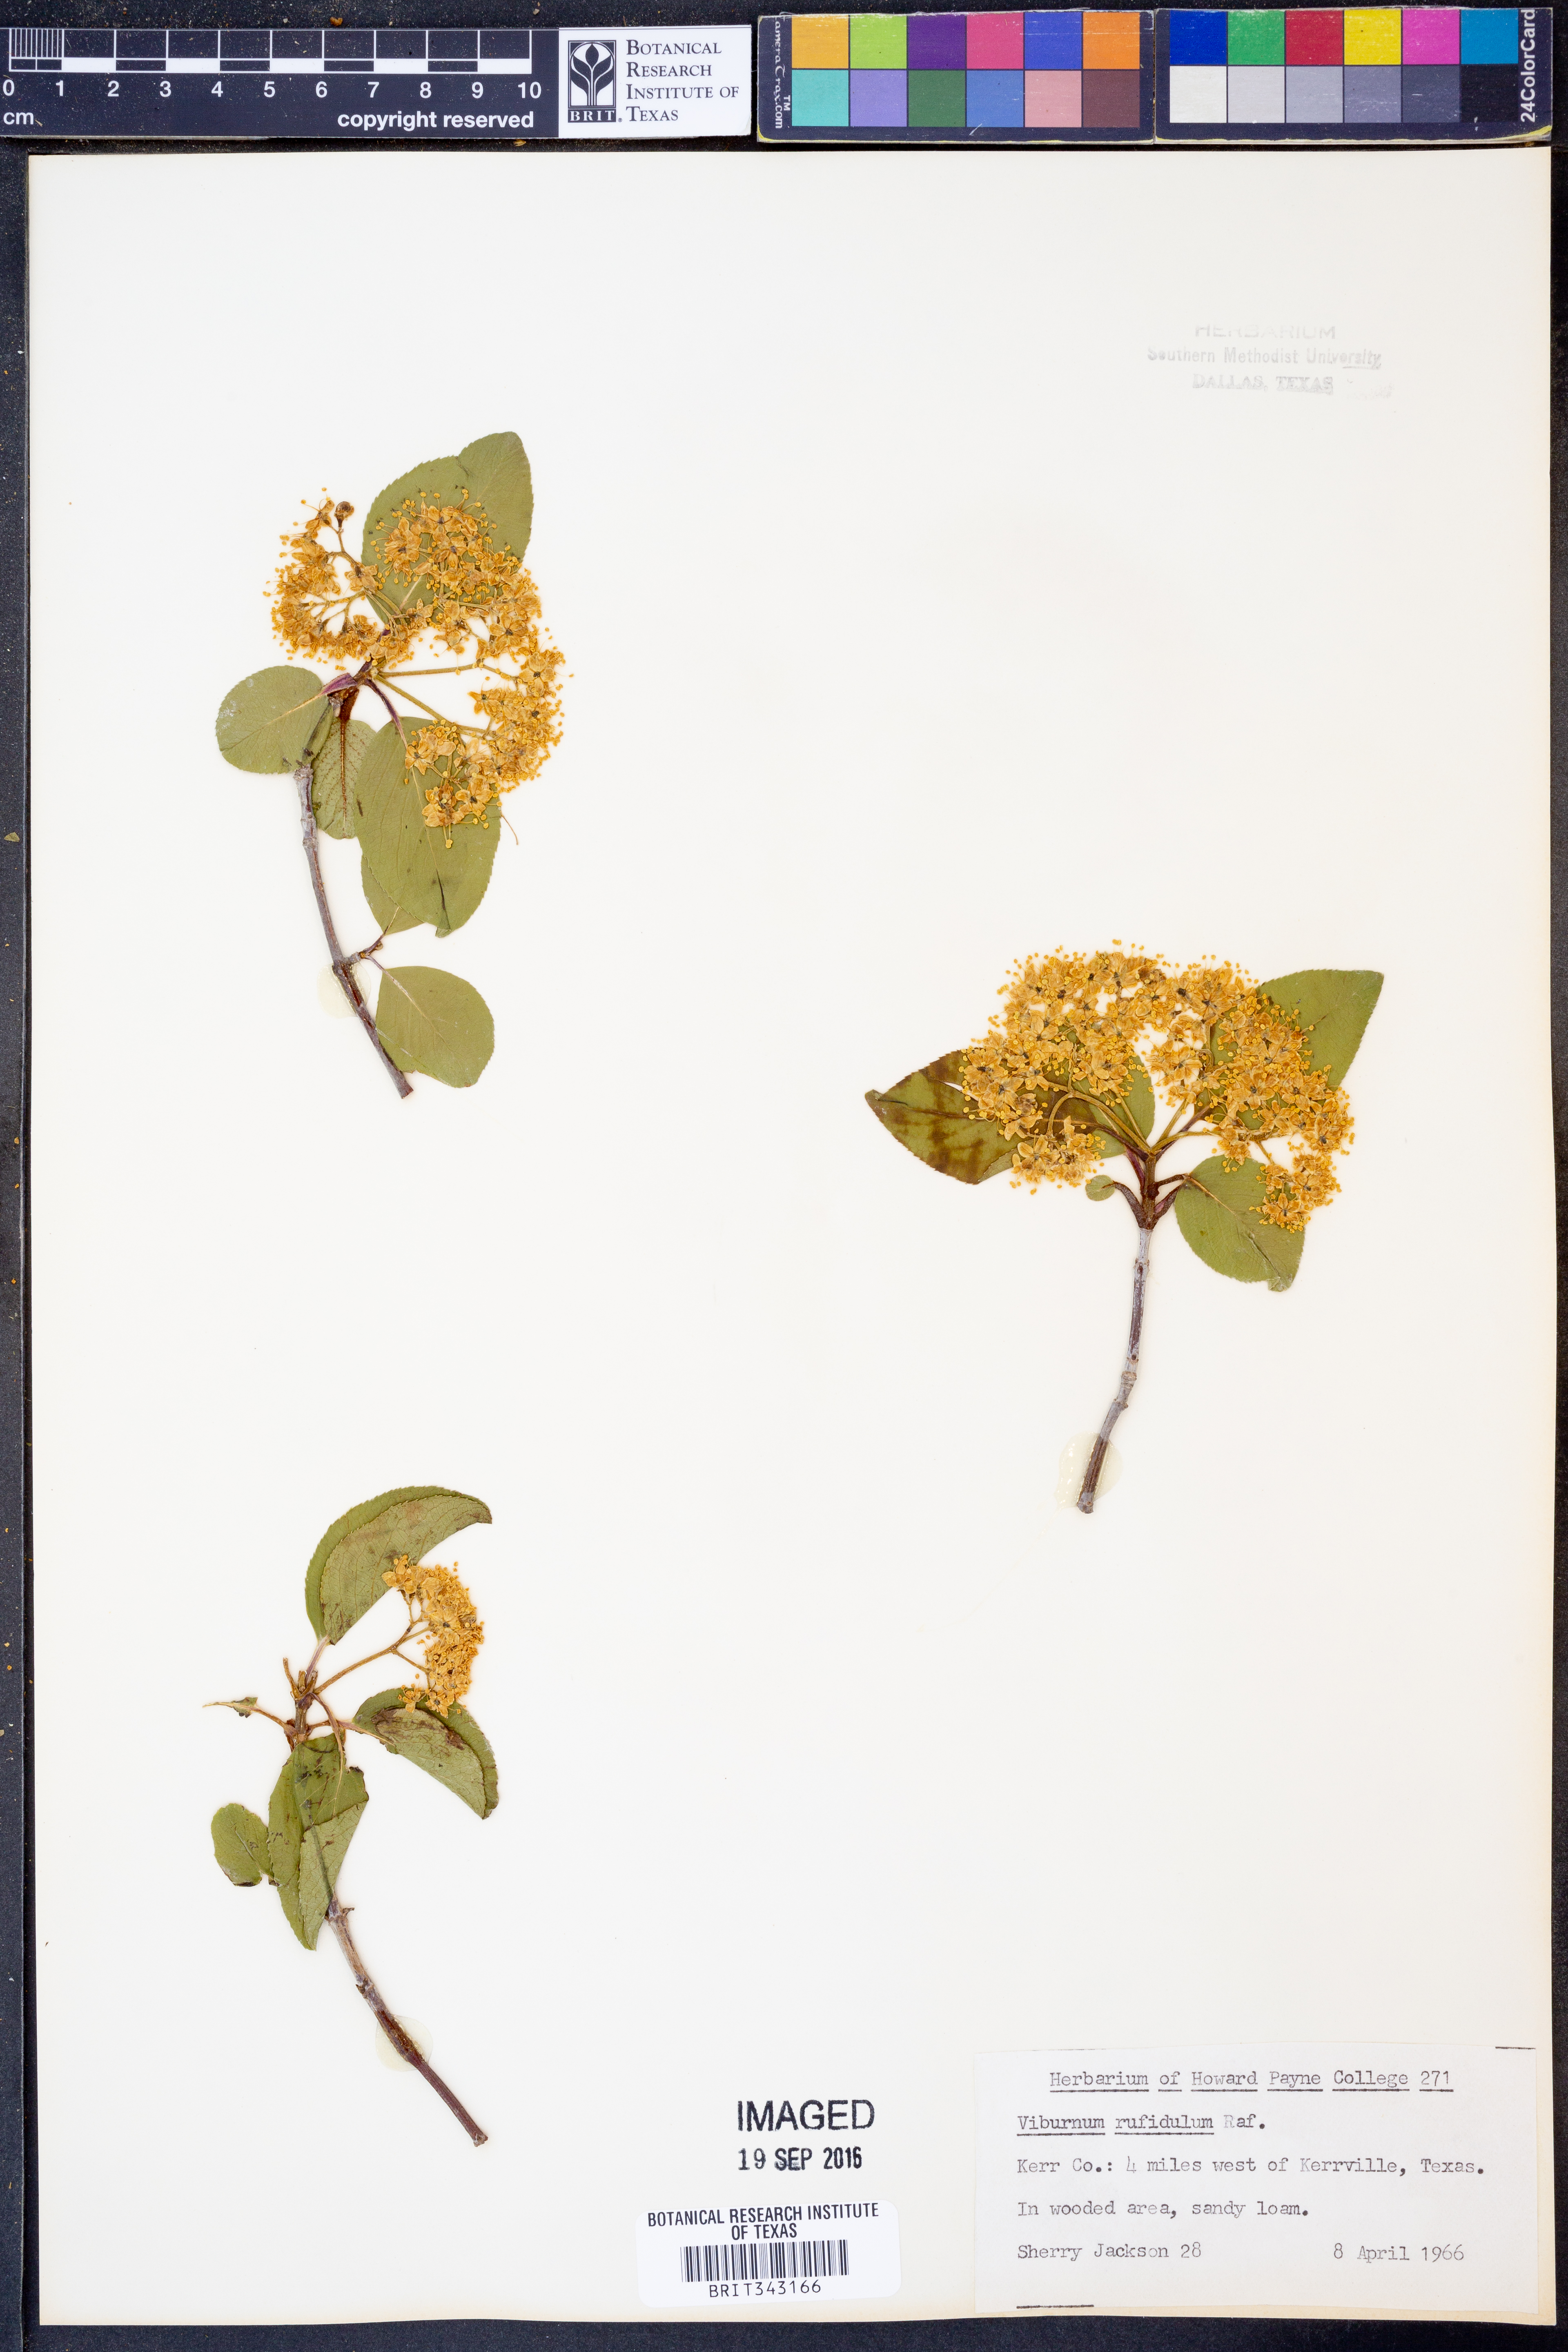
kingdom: Plantae
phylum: Tracheophyta
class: Magnoliopsida
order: Dipsacales
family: Viburnaceae
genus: Viburnum
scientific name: Viburnum rufidulum
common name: Blue haw
